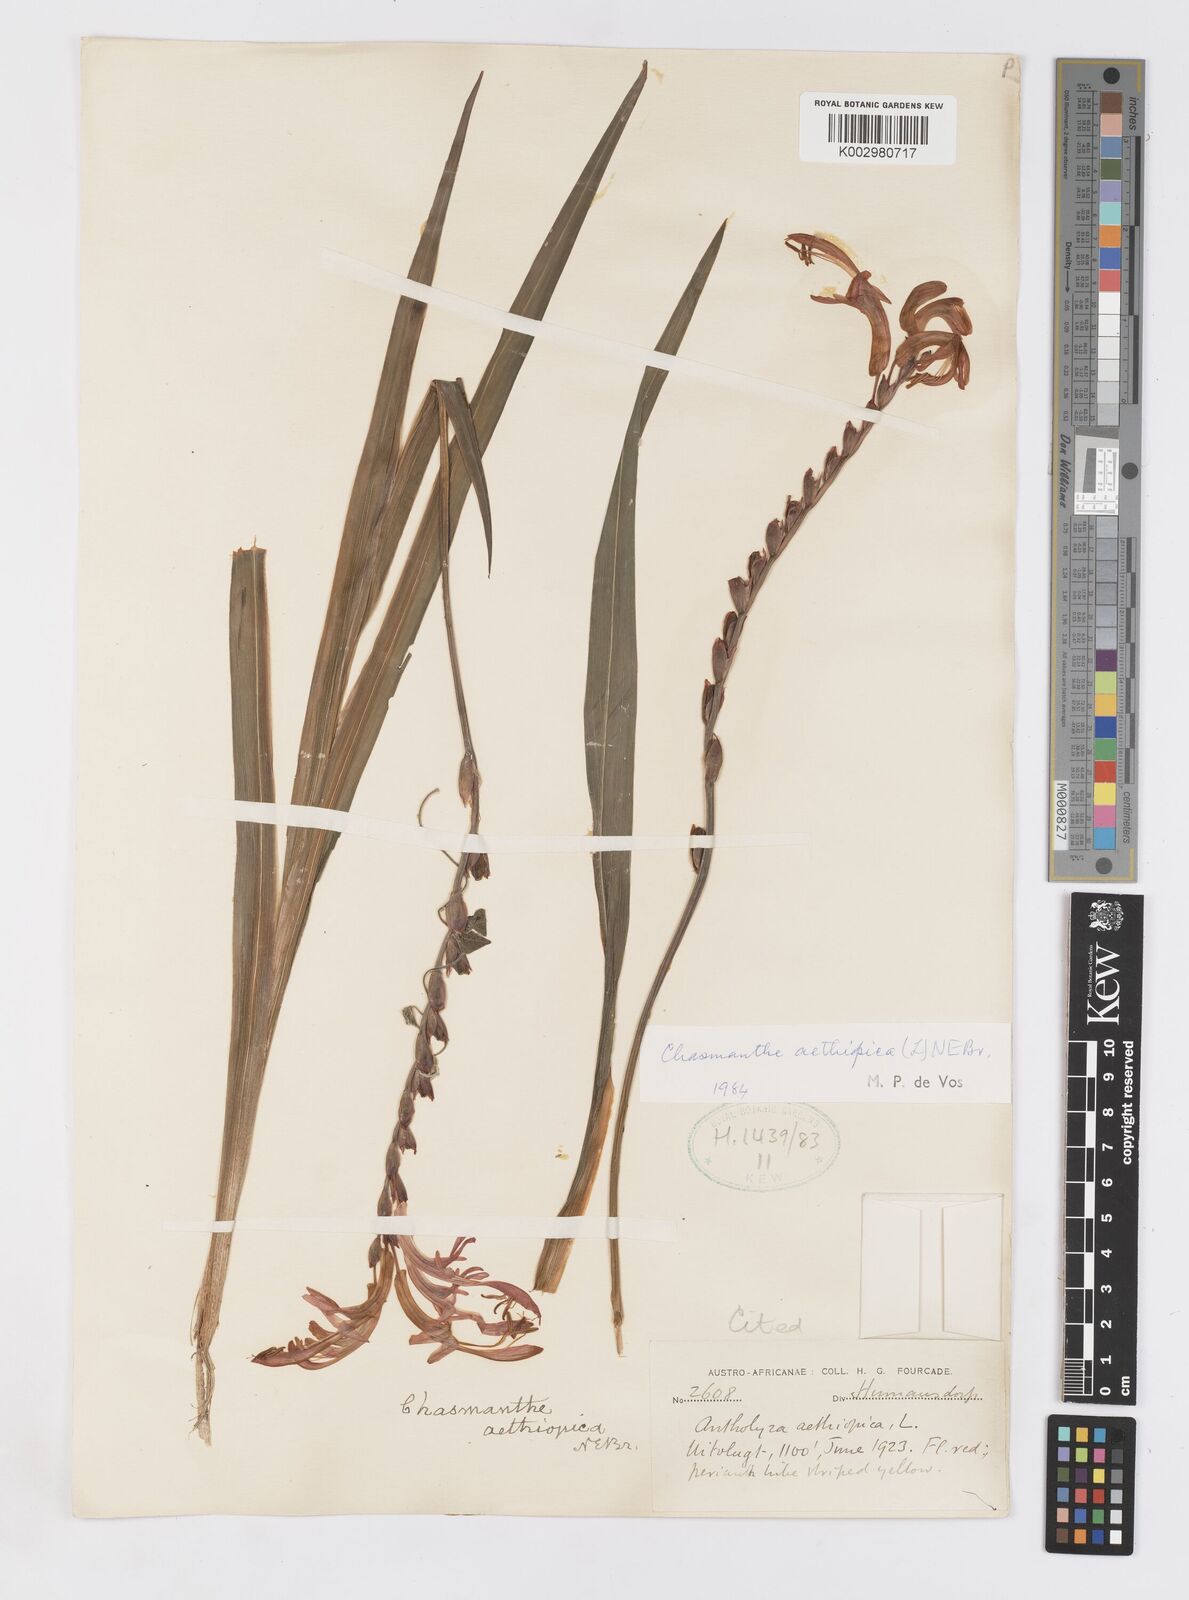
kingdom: Plantae
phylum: Tracheophyta
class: Liliopsida
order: Asparagales
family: Iridaceae
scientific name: Iridaceae
